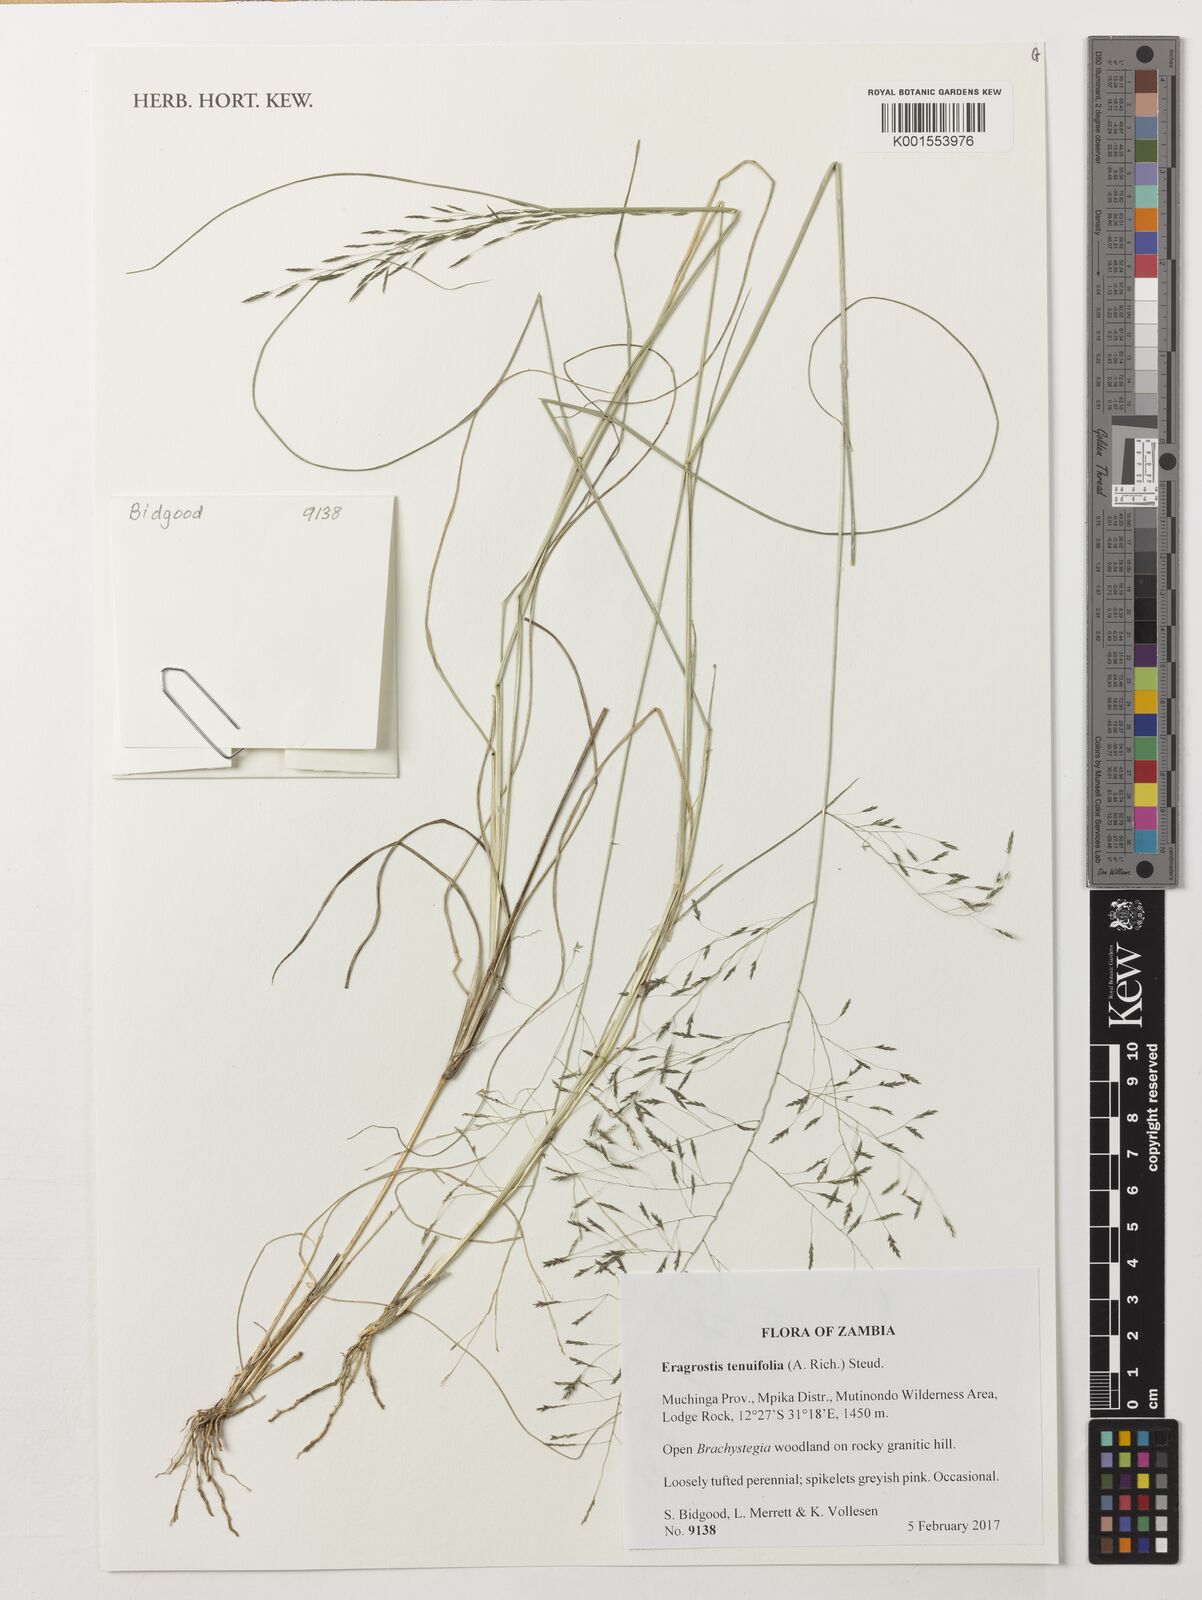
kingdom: Plantae
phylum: Tracheophyta
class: Liliopsida
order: Poales
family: Poaceae
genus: Eragrostis
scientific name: Eragrostis tenuifolia
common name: Elastic grass
